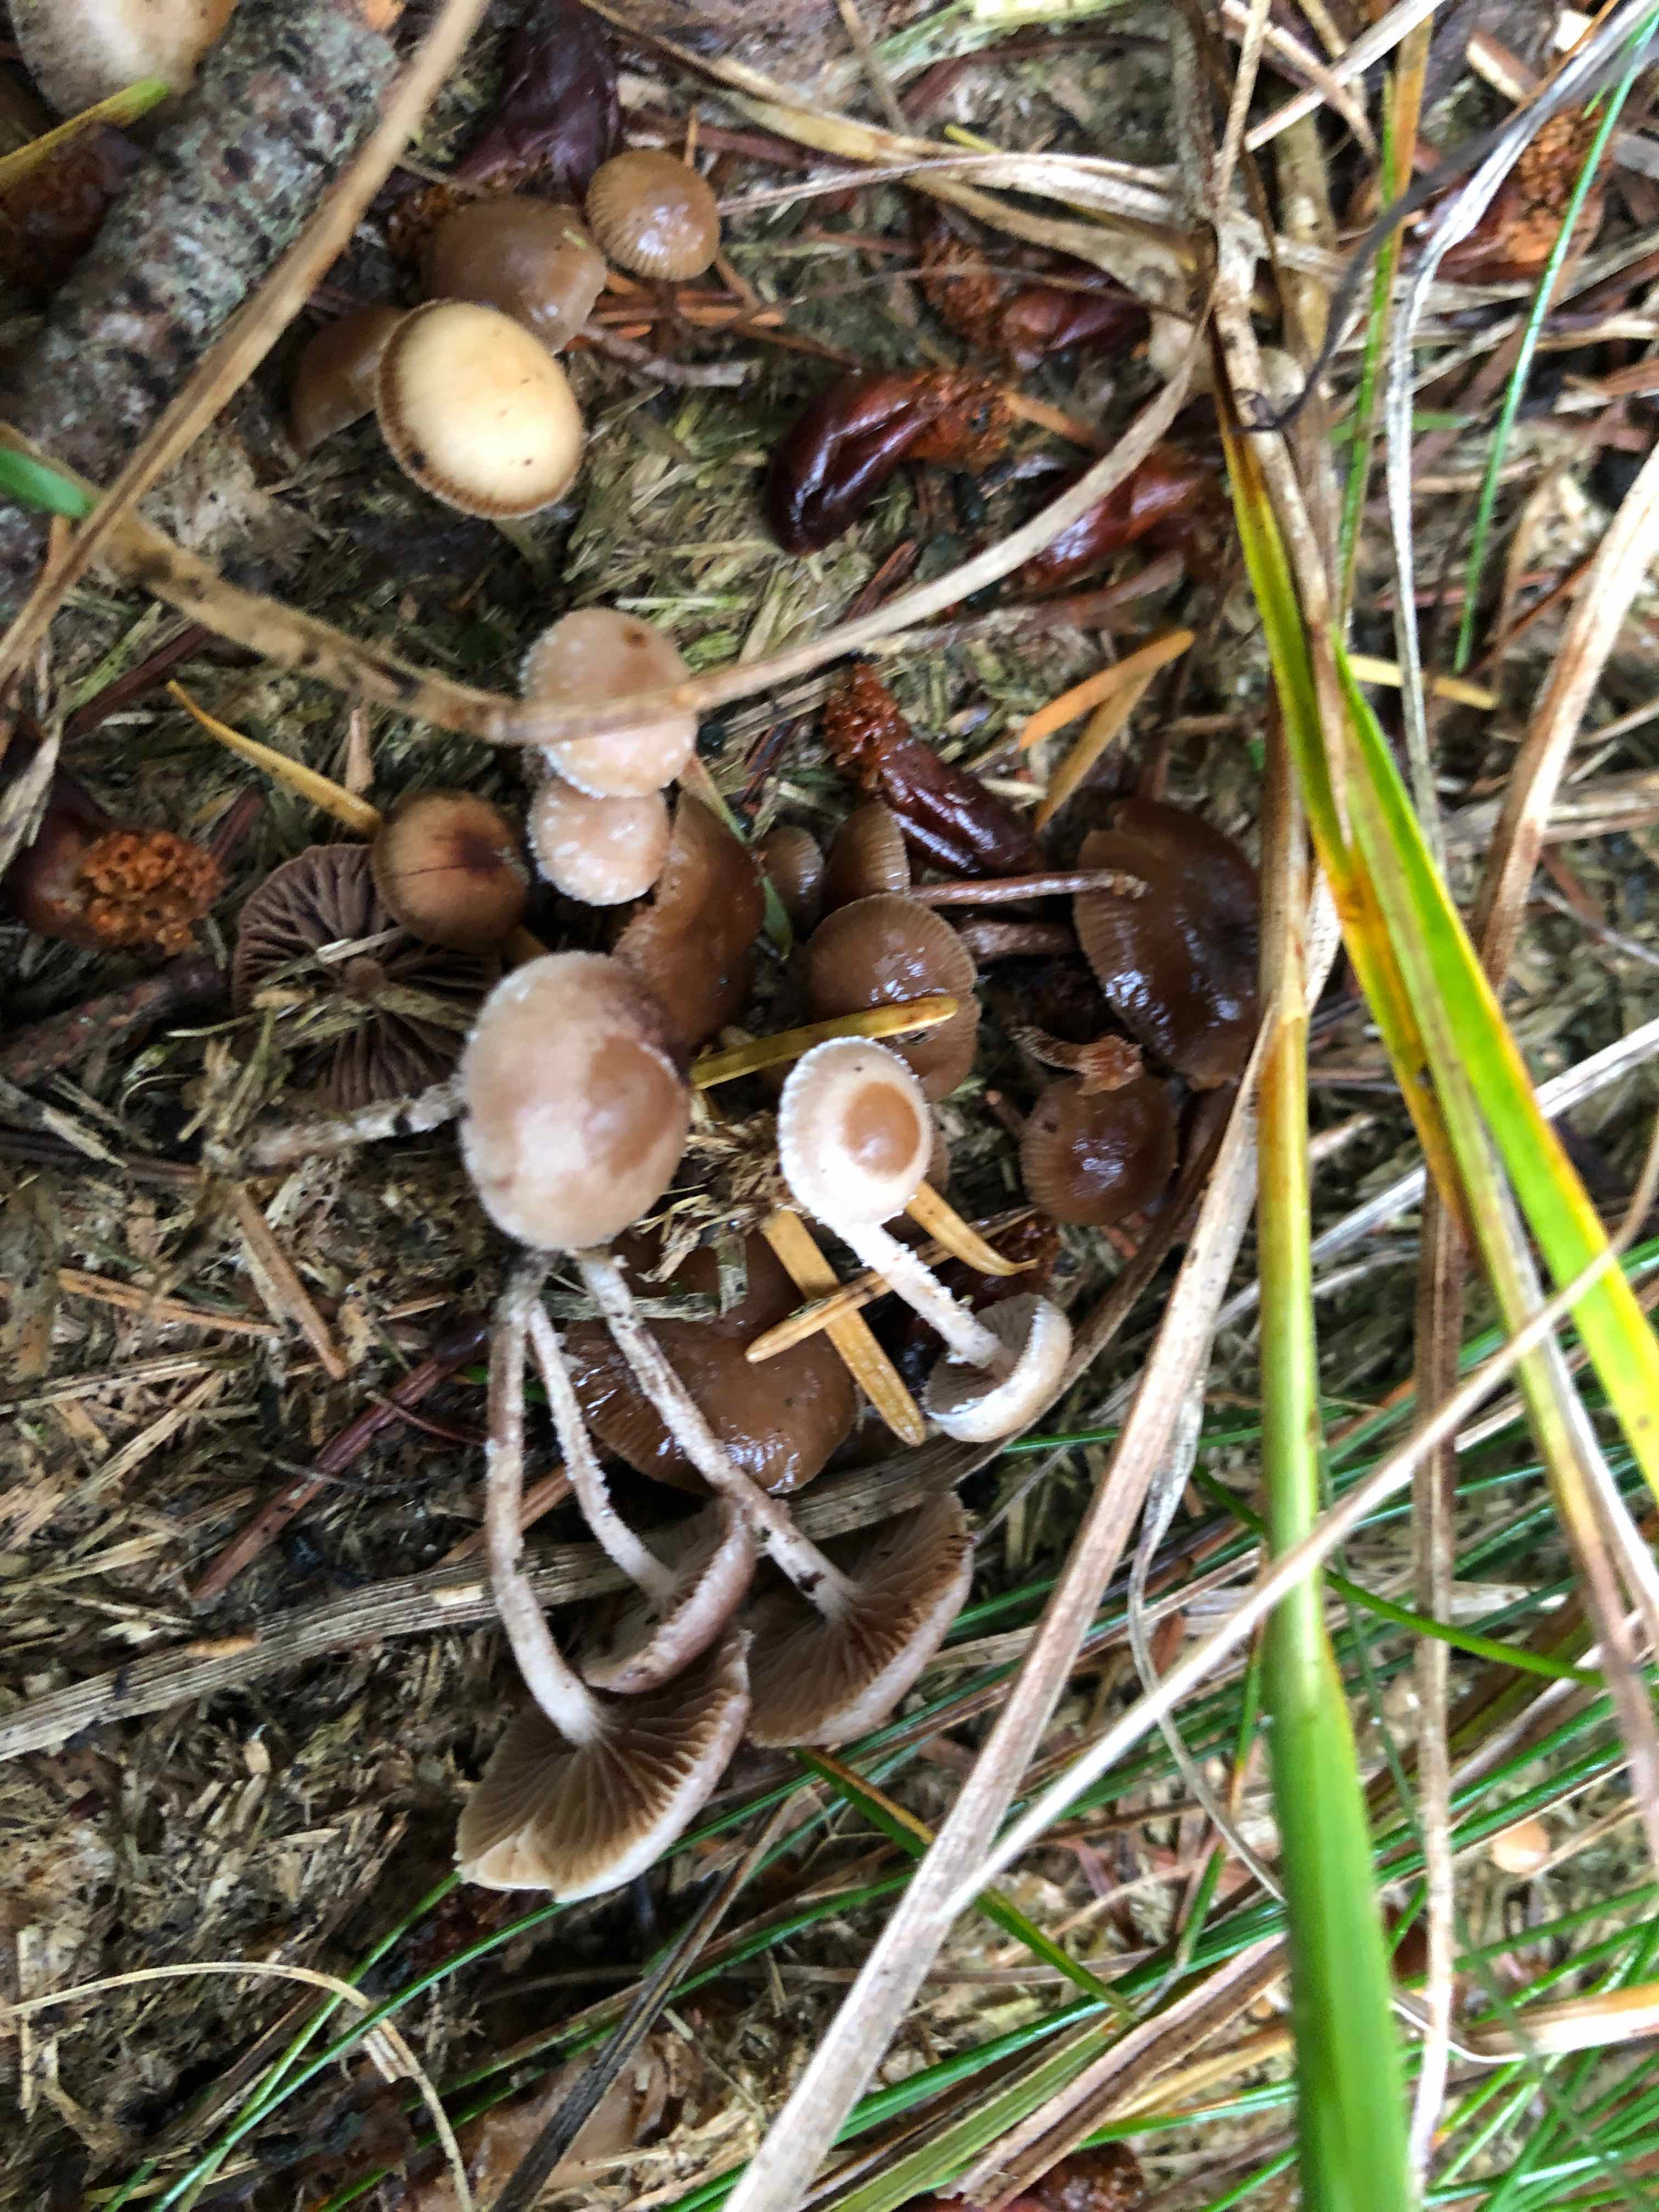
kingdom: Fungi
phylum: Basidiomycota
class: Agaricomycetes
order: Agaricales
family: Strophariaceae
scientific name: Strophariaceae
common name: bredbladfamilien
